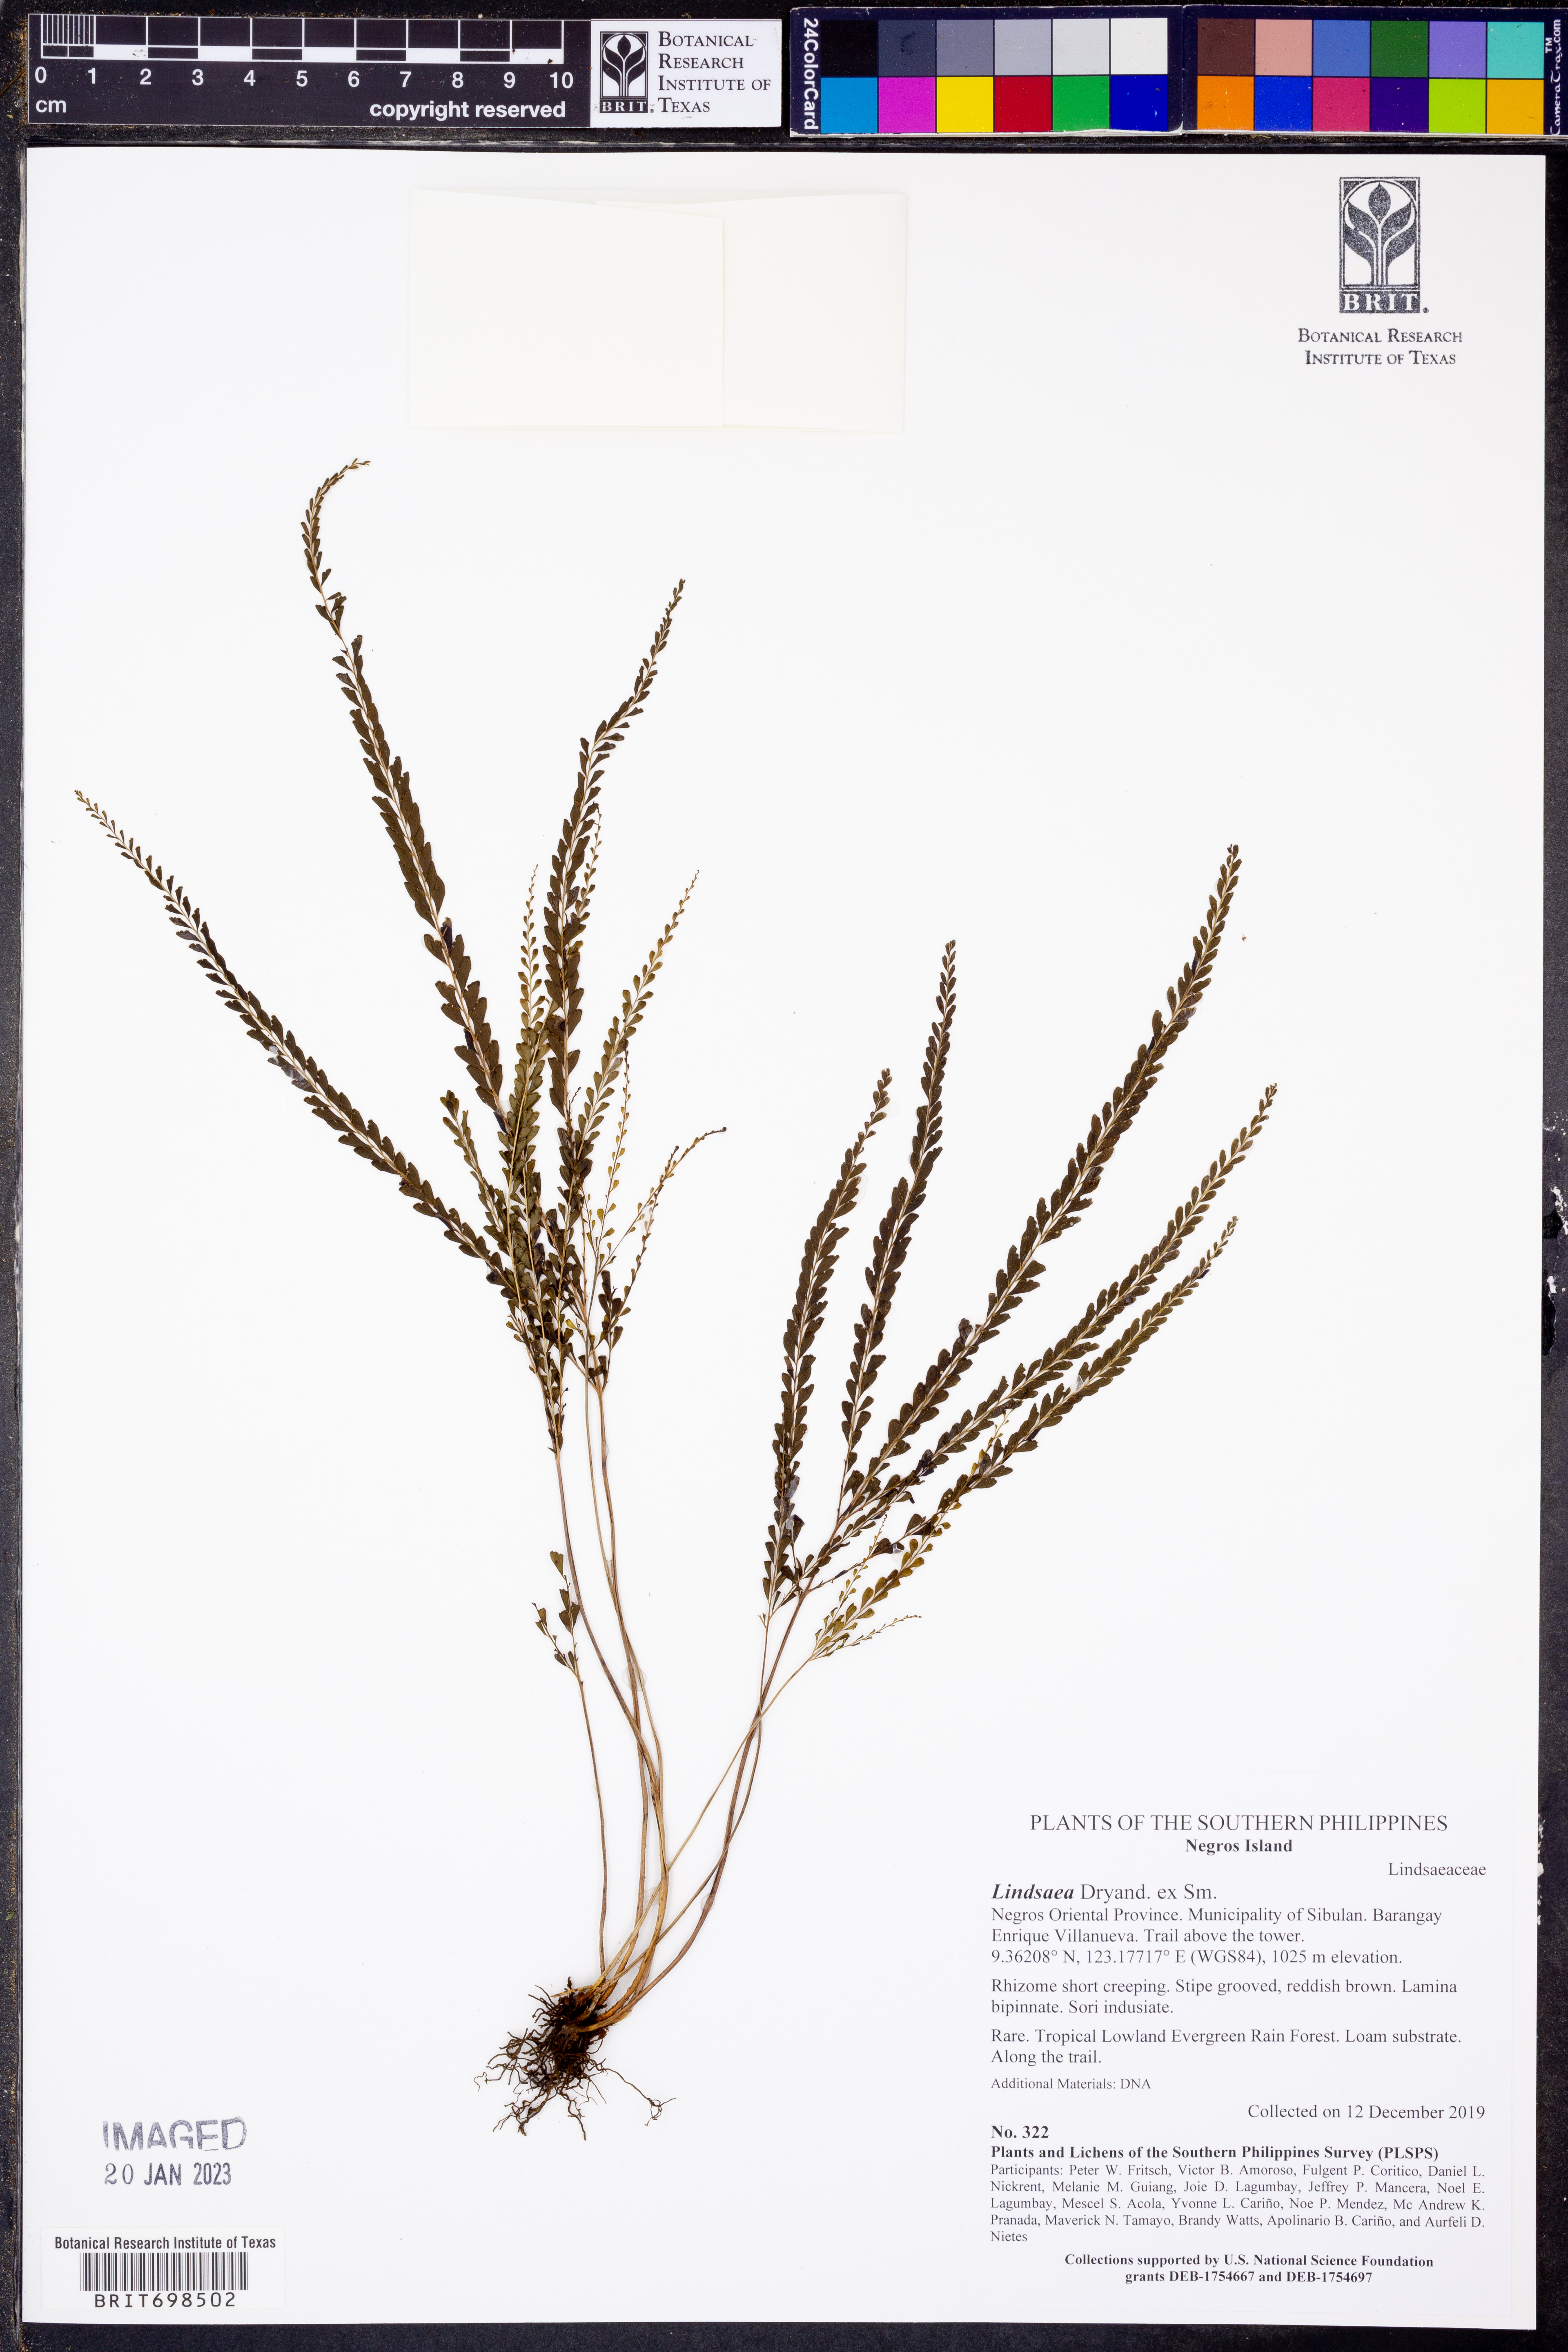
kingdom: Plantae
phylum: Tracheophyta
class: Polypodiopsida
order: Polypodiales
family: Lindsaeaceae
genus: Lindsaea
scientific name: Lindsaea
